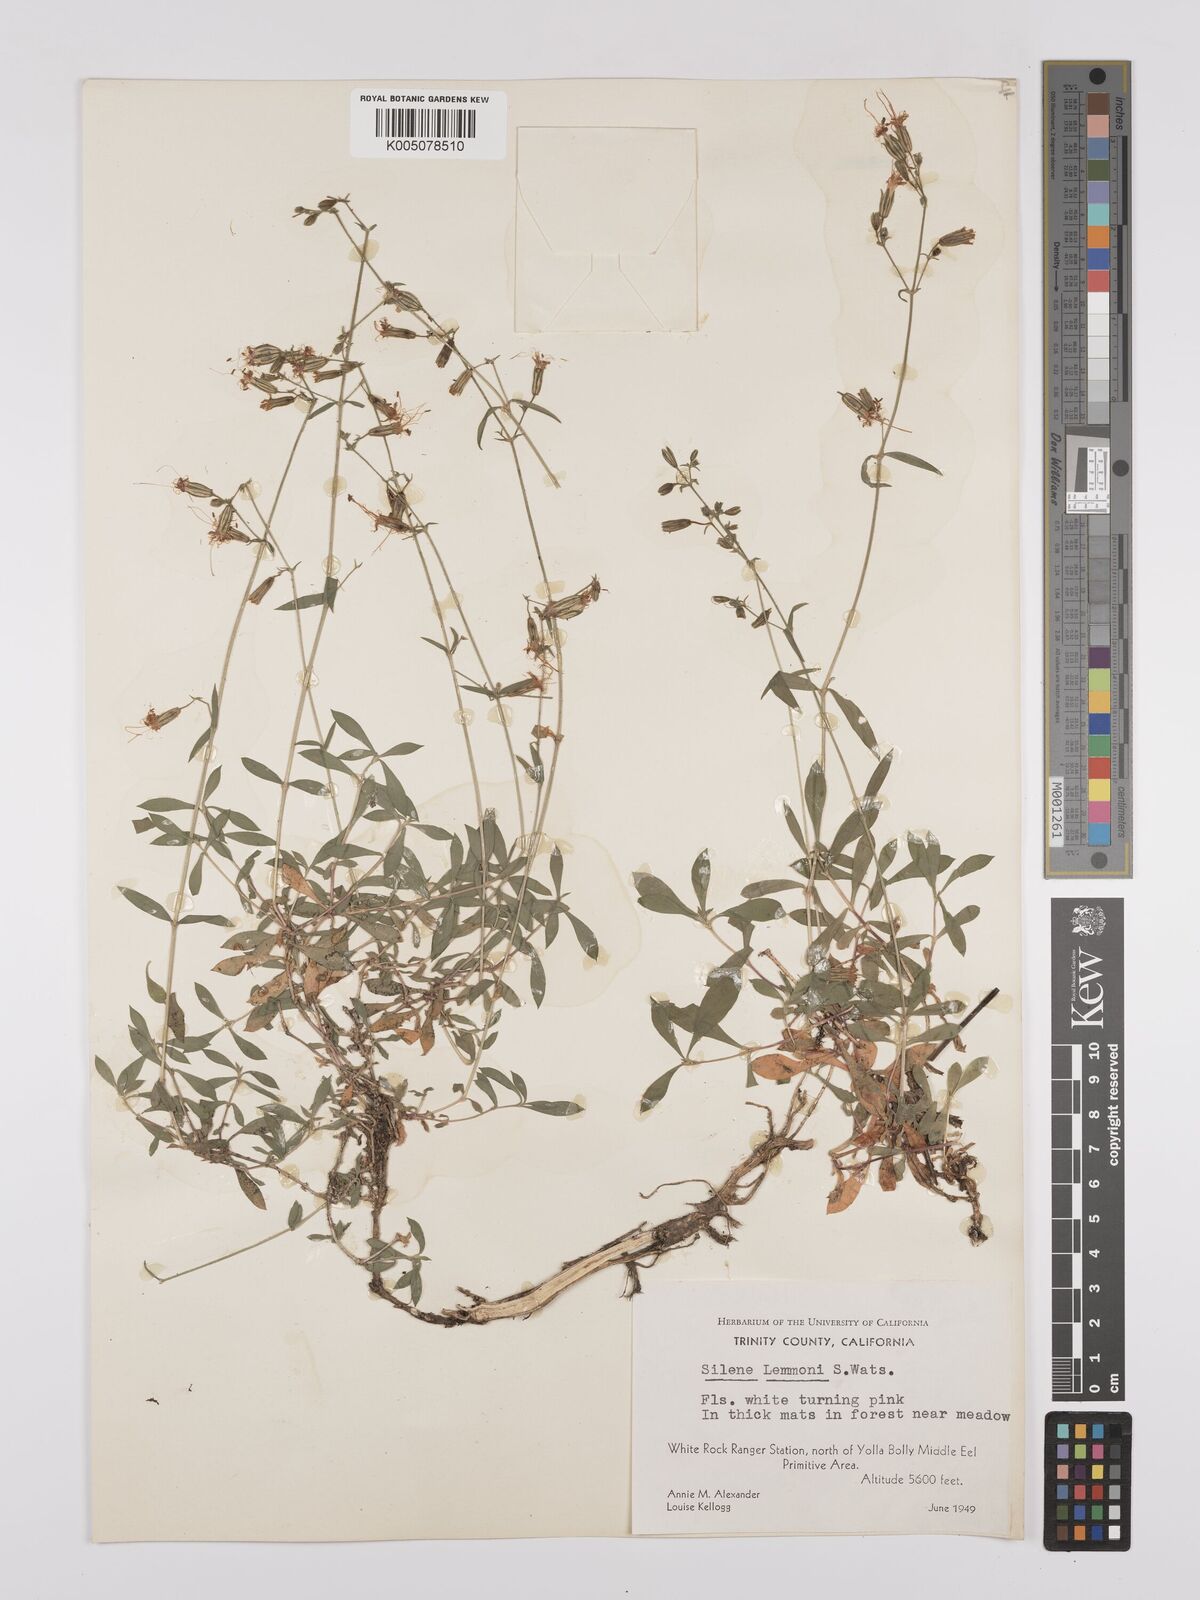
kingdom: Plantae
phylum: Tracheophyta
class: Magnoliopsida
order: Caryophyllales
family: Caryophyllaceae
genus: Silene
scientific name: Silene lemmonii
